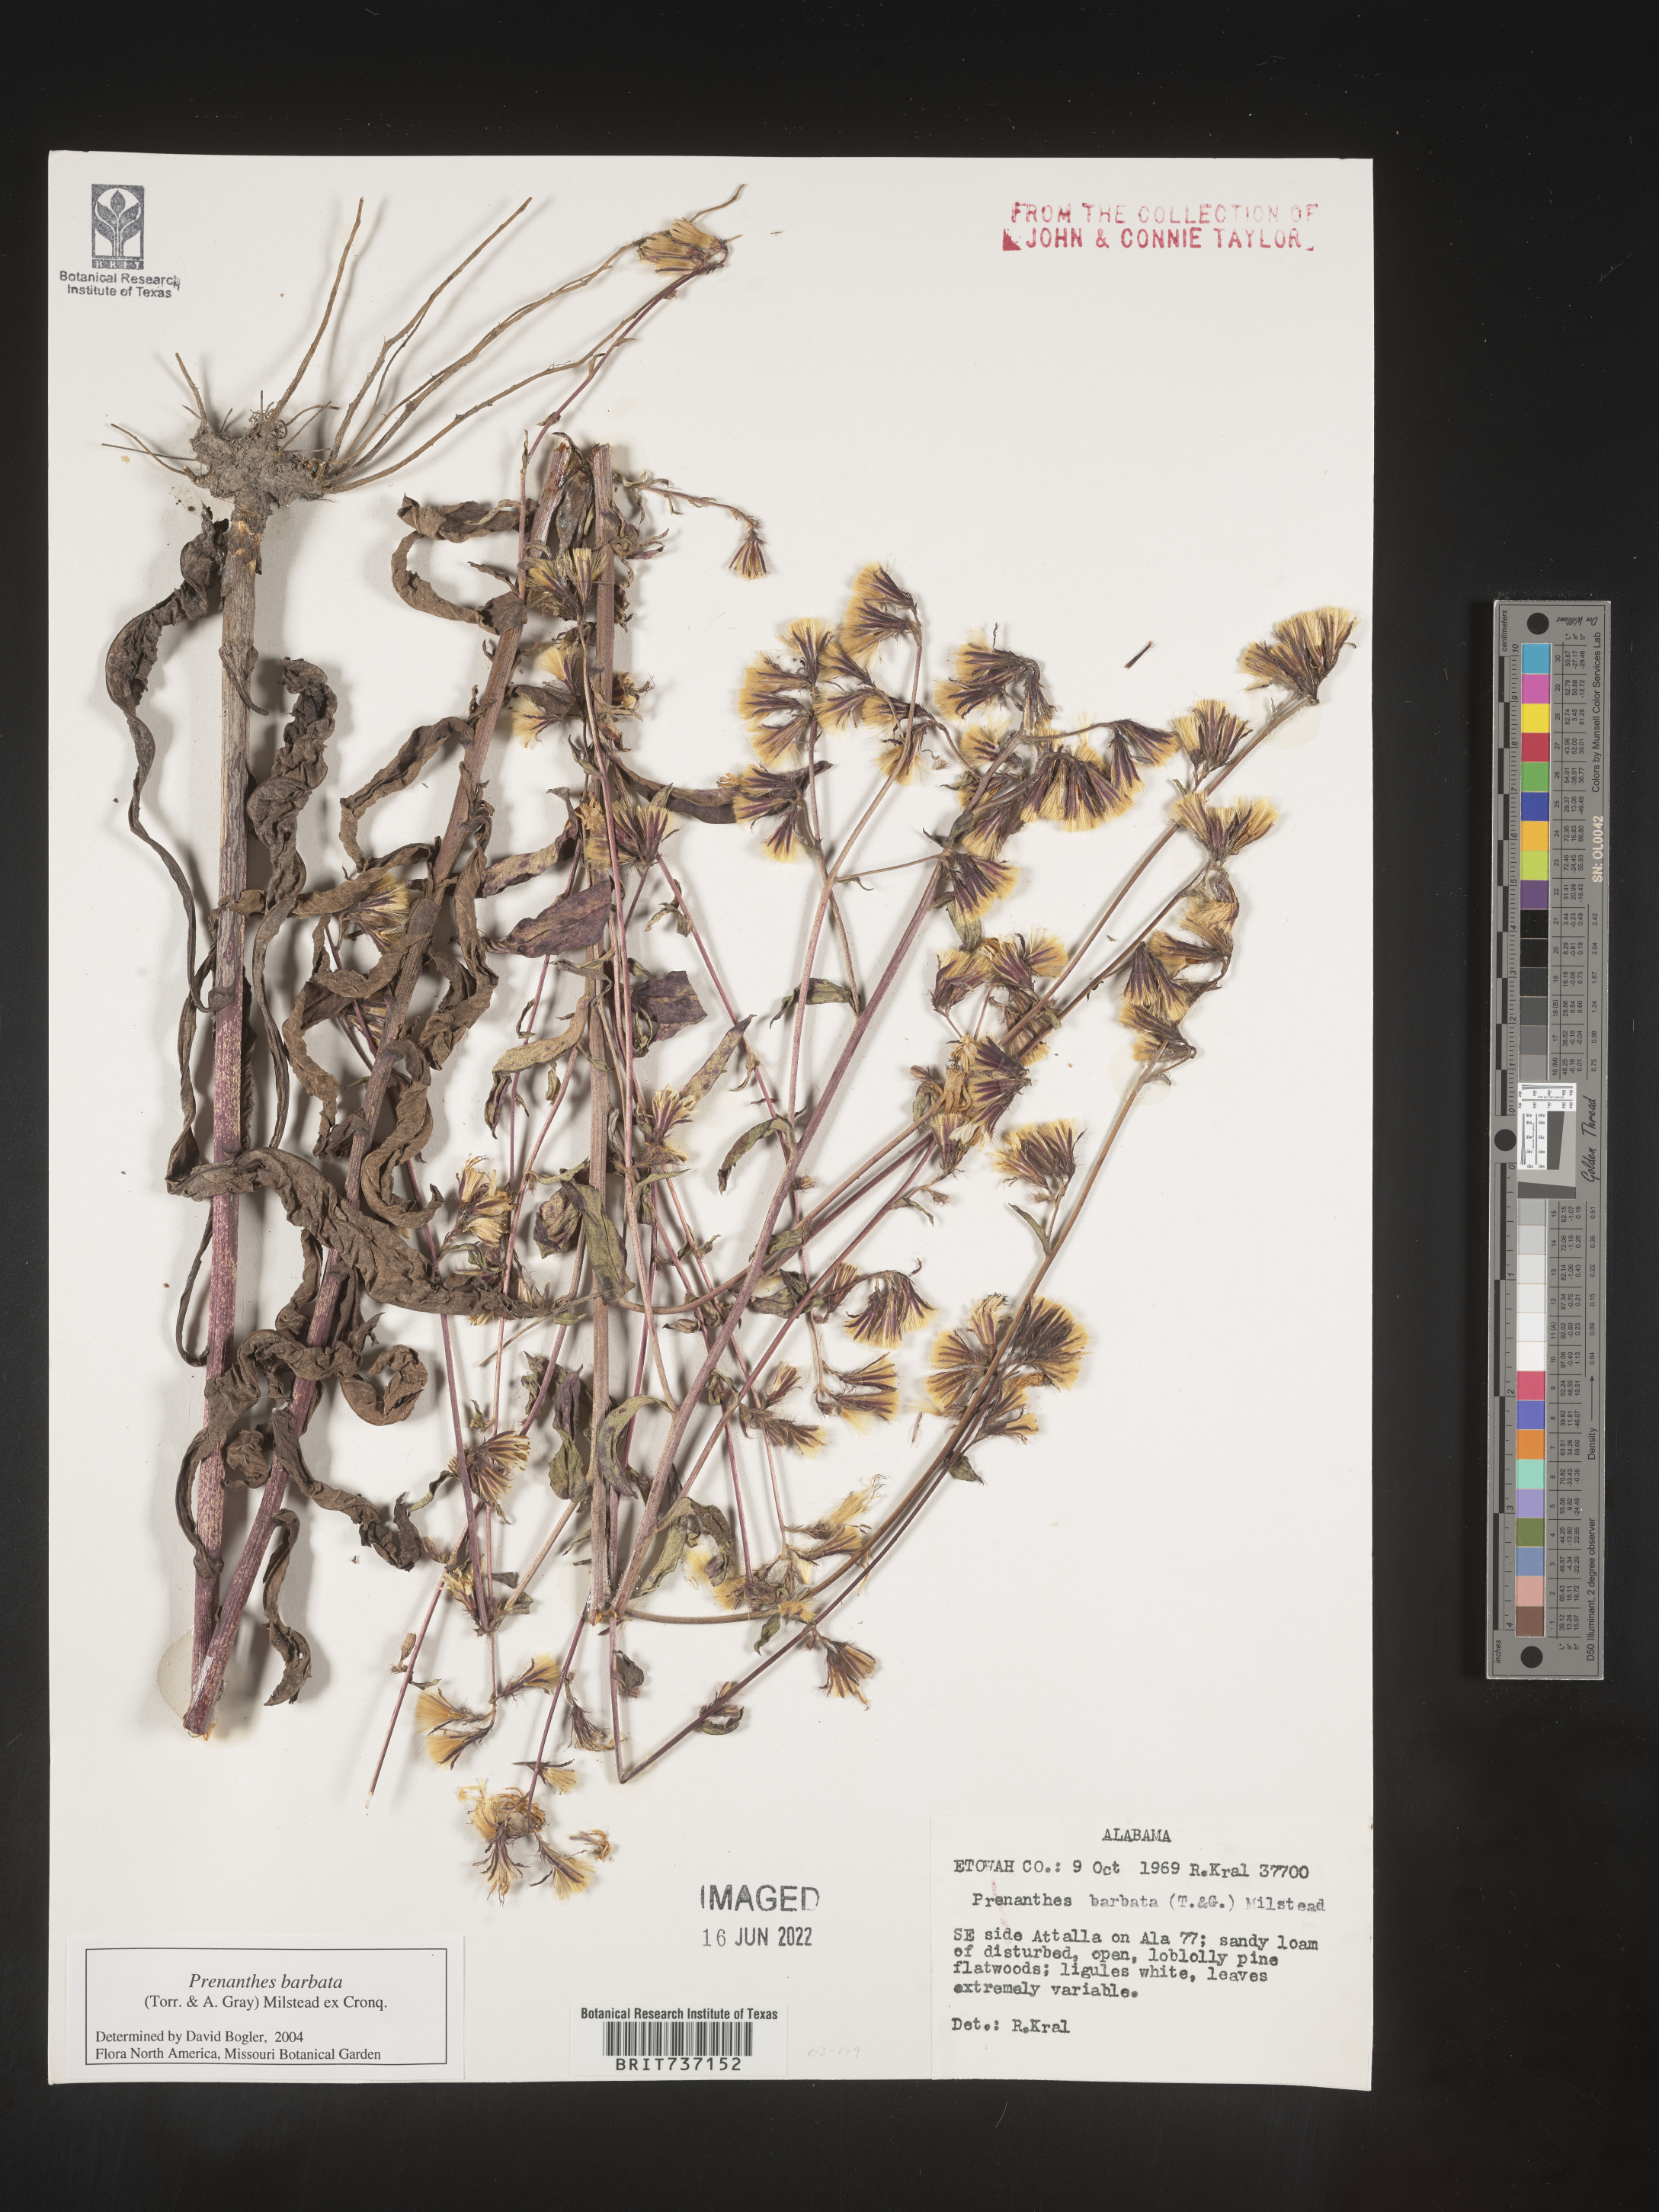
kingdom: Plantae
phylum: Tracheophyta
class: Magnoliopsida
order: Asterales
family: Asteraceae
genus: Nabalus
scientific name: Nabalus barbata
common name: Barbed rattlesnakeroot
